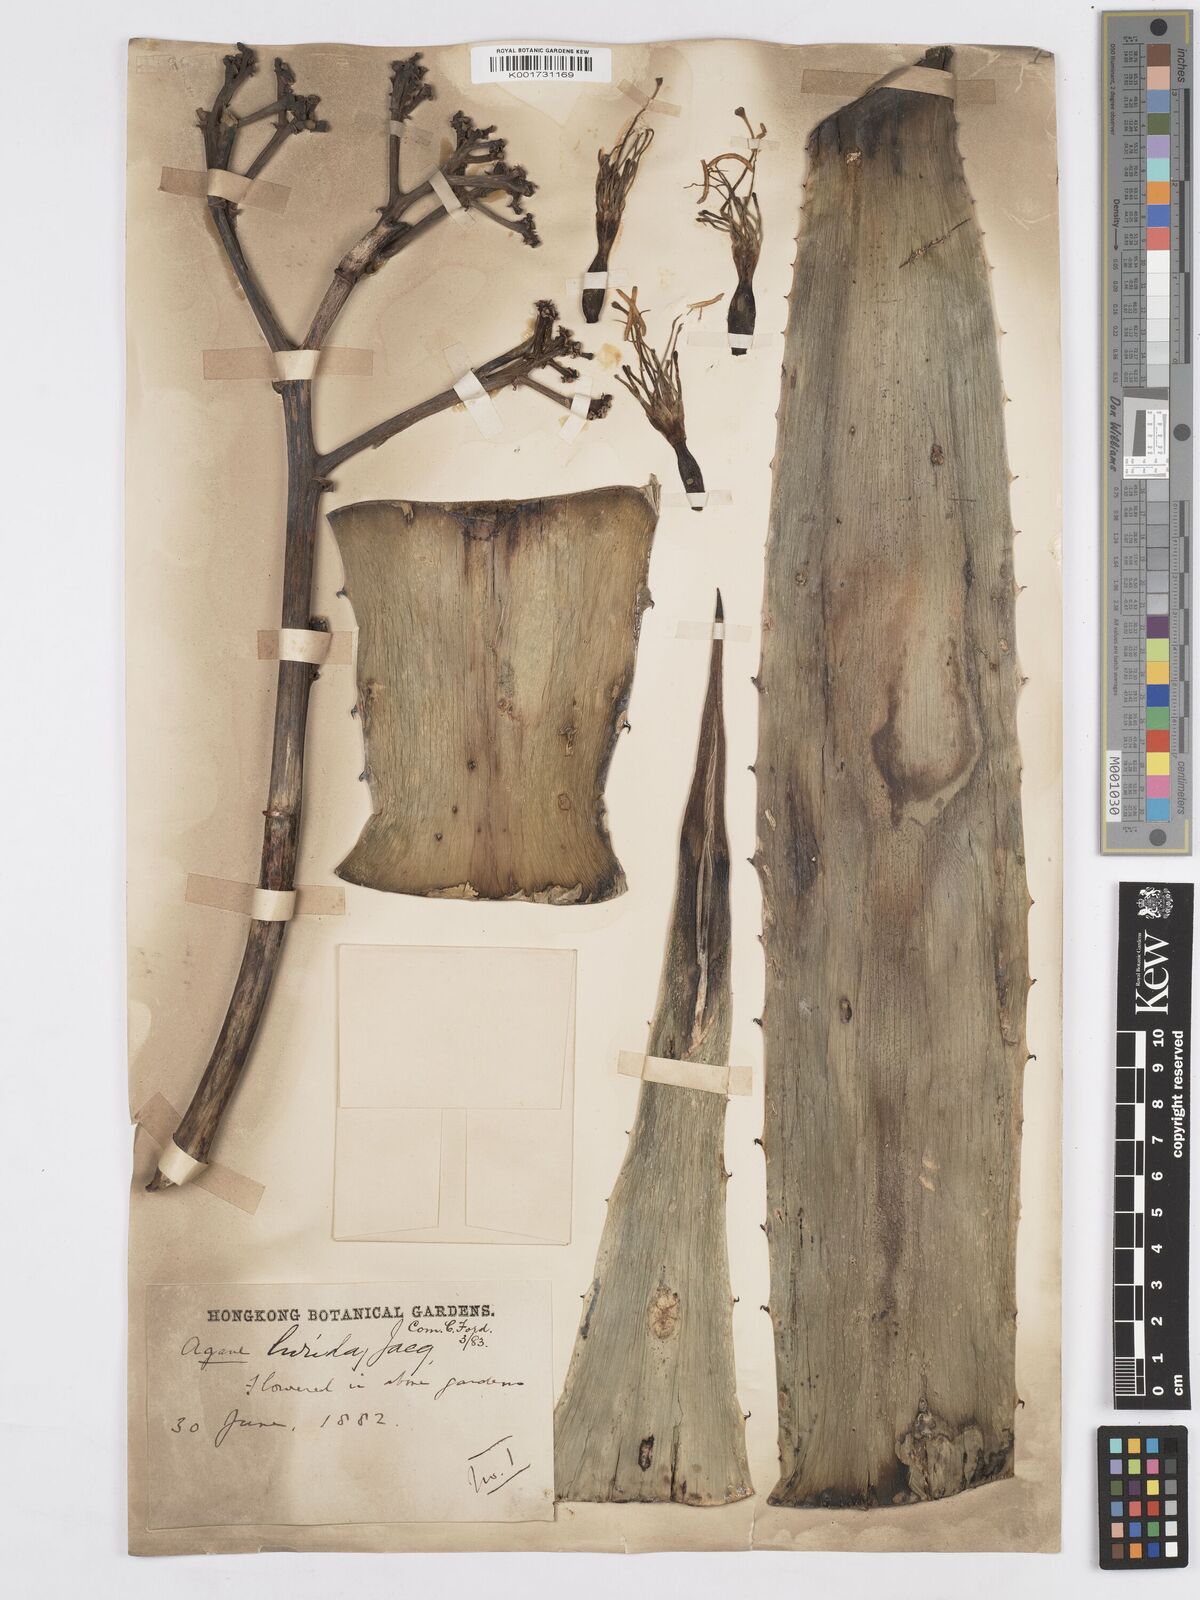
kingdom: Plantae
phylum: Tracheophyta
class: Liliopsida
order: Asparagales
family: Asparagaceae
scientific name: Asparagaceae
